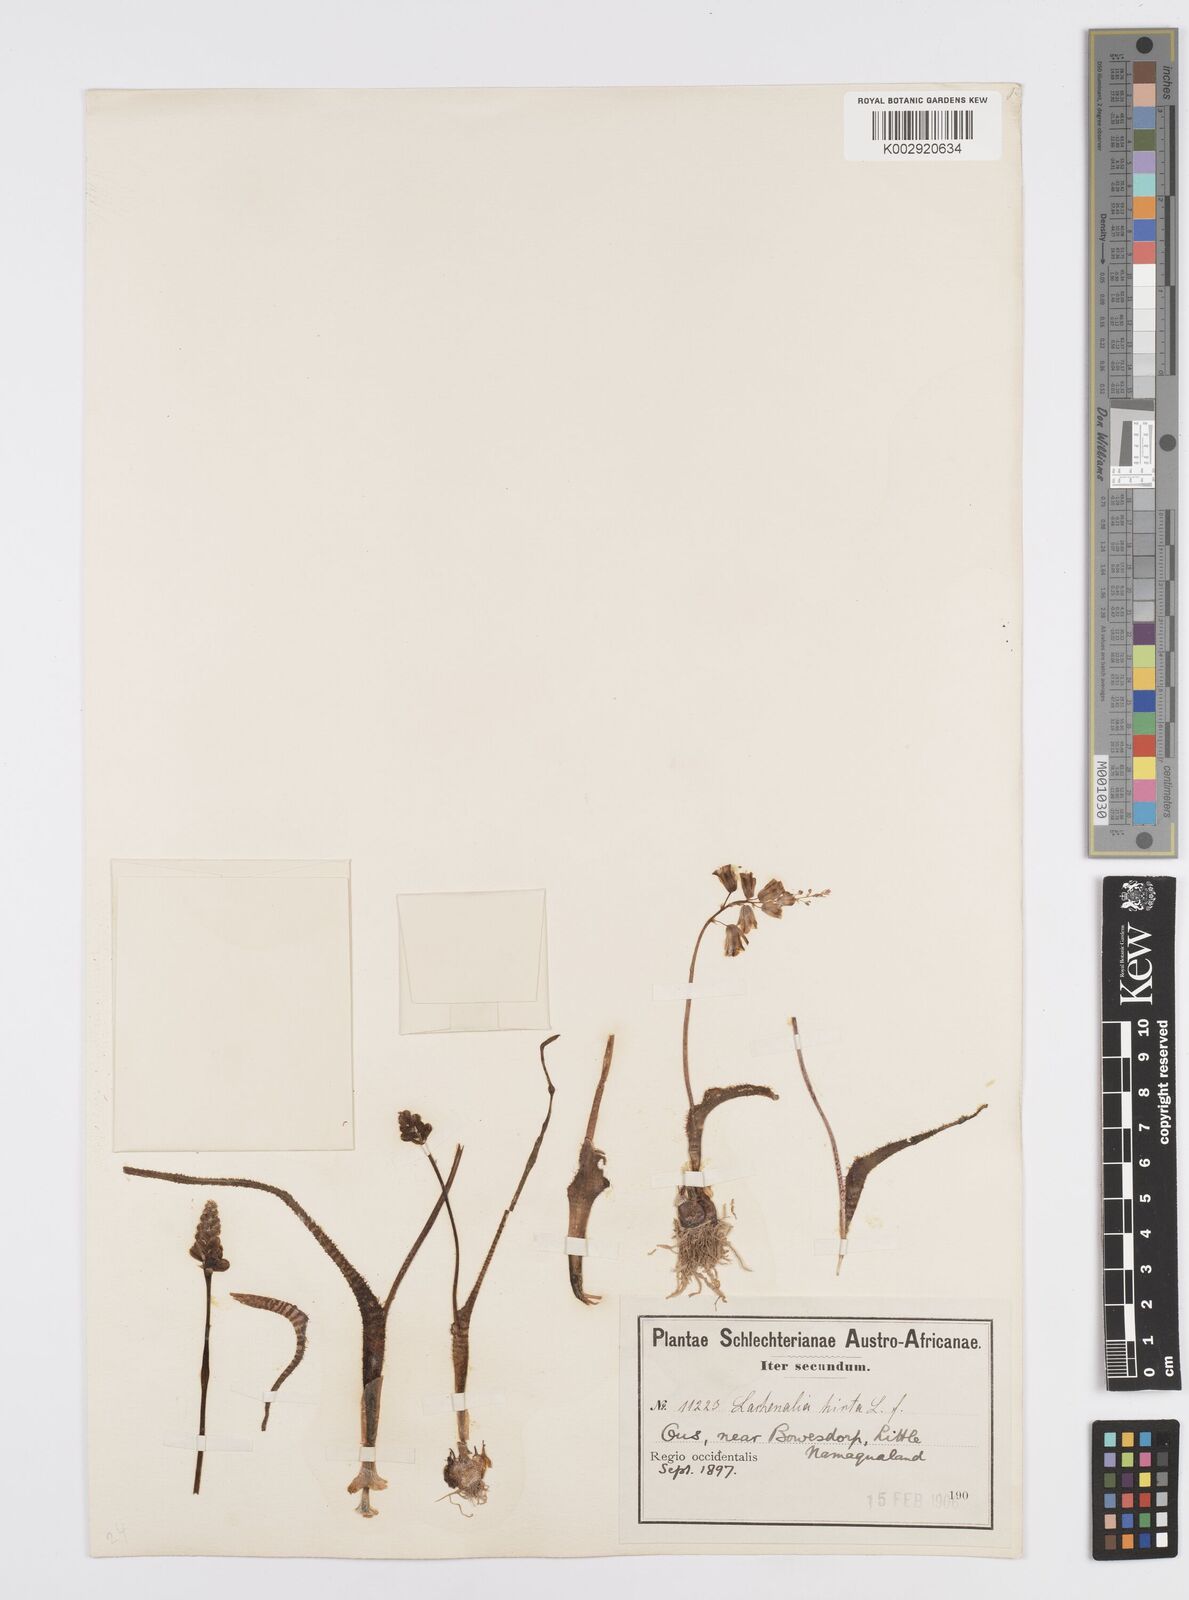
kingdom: Plantae
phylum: Tracheophyta
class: Liliopsida
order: Asparagales
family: Asparagaceae
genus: Lachenalia
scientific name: Lachenalia hirta
